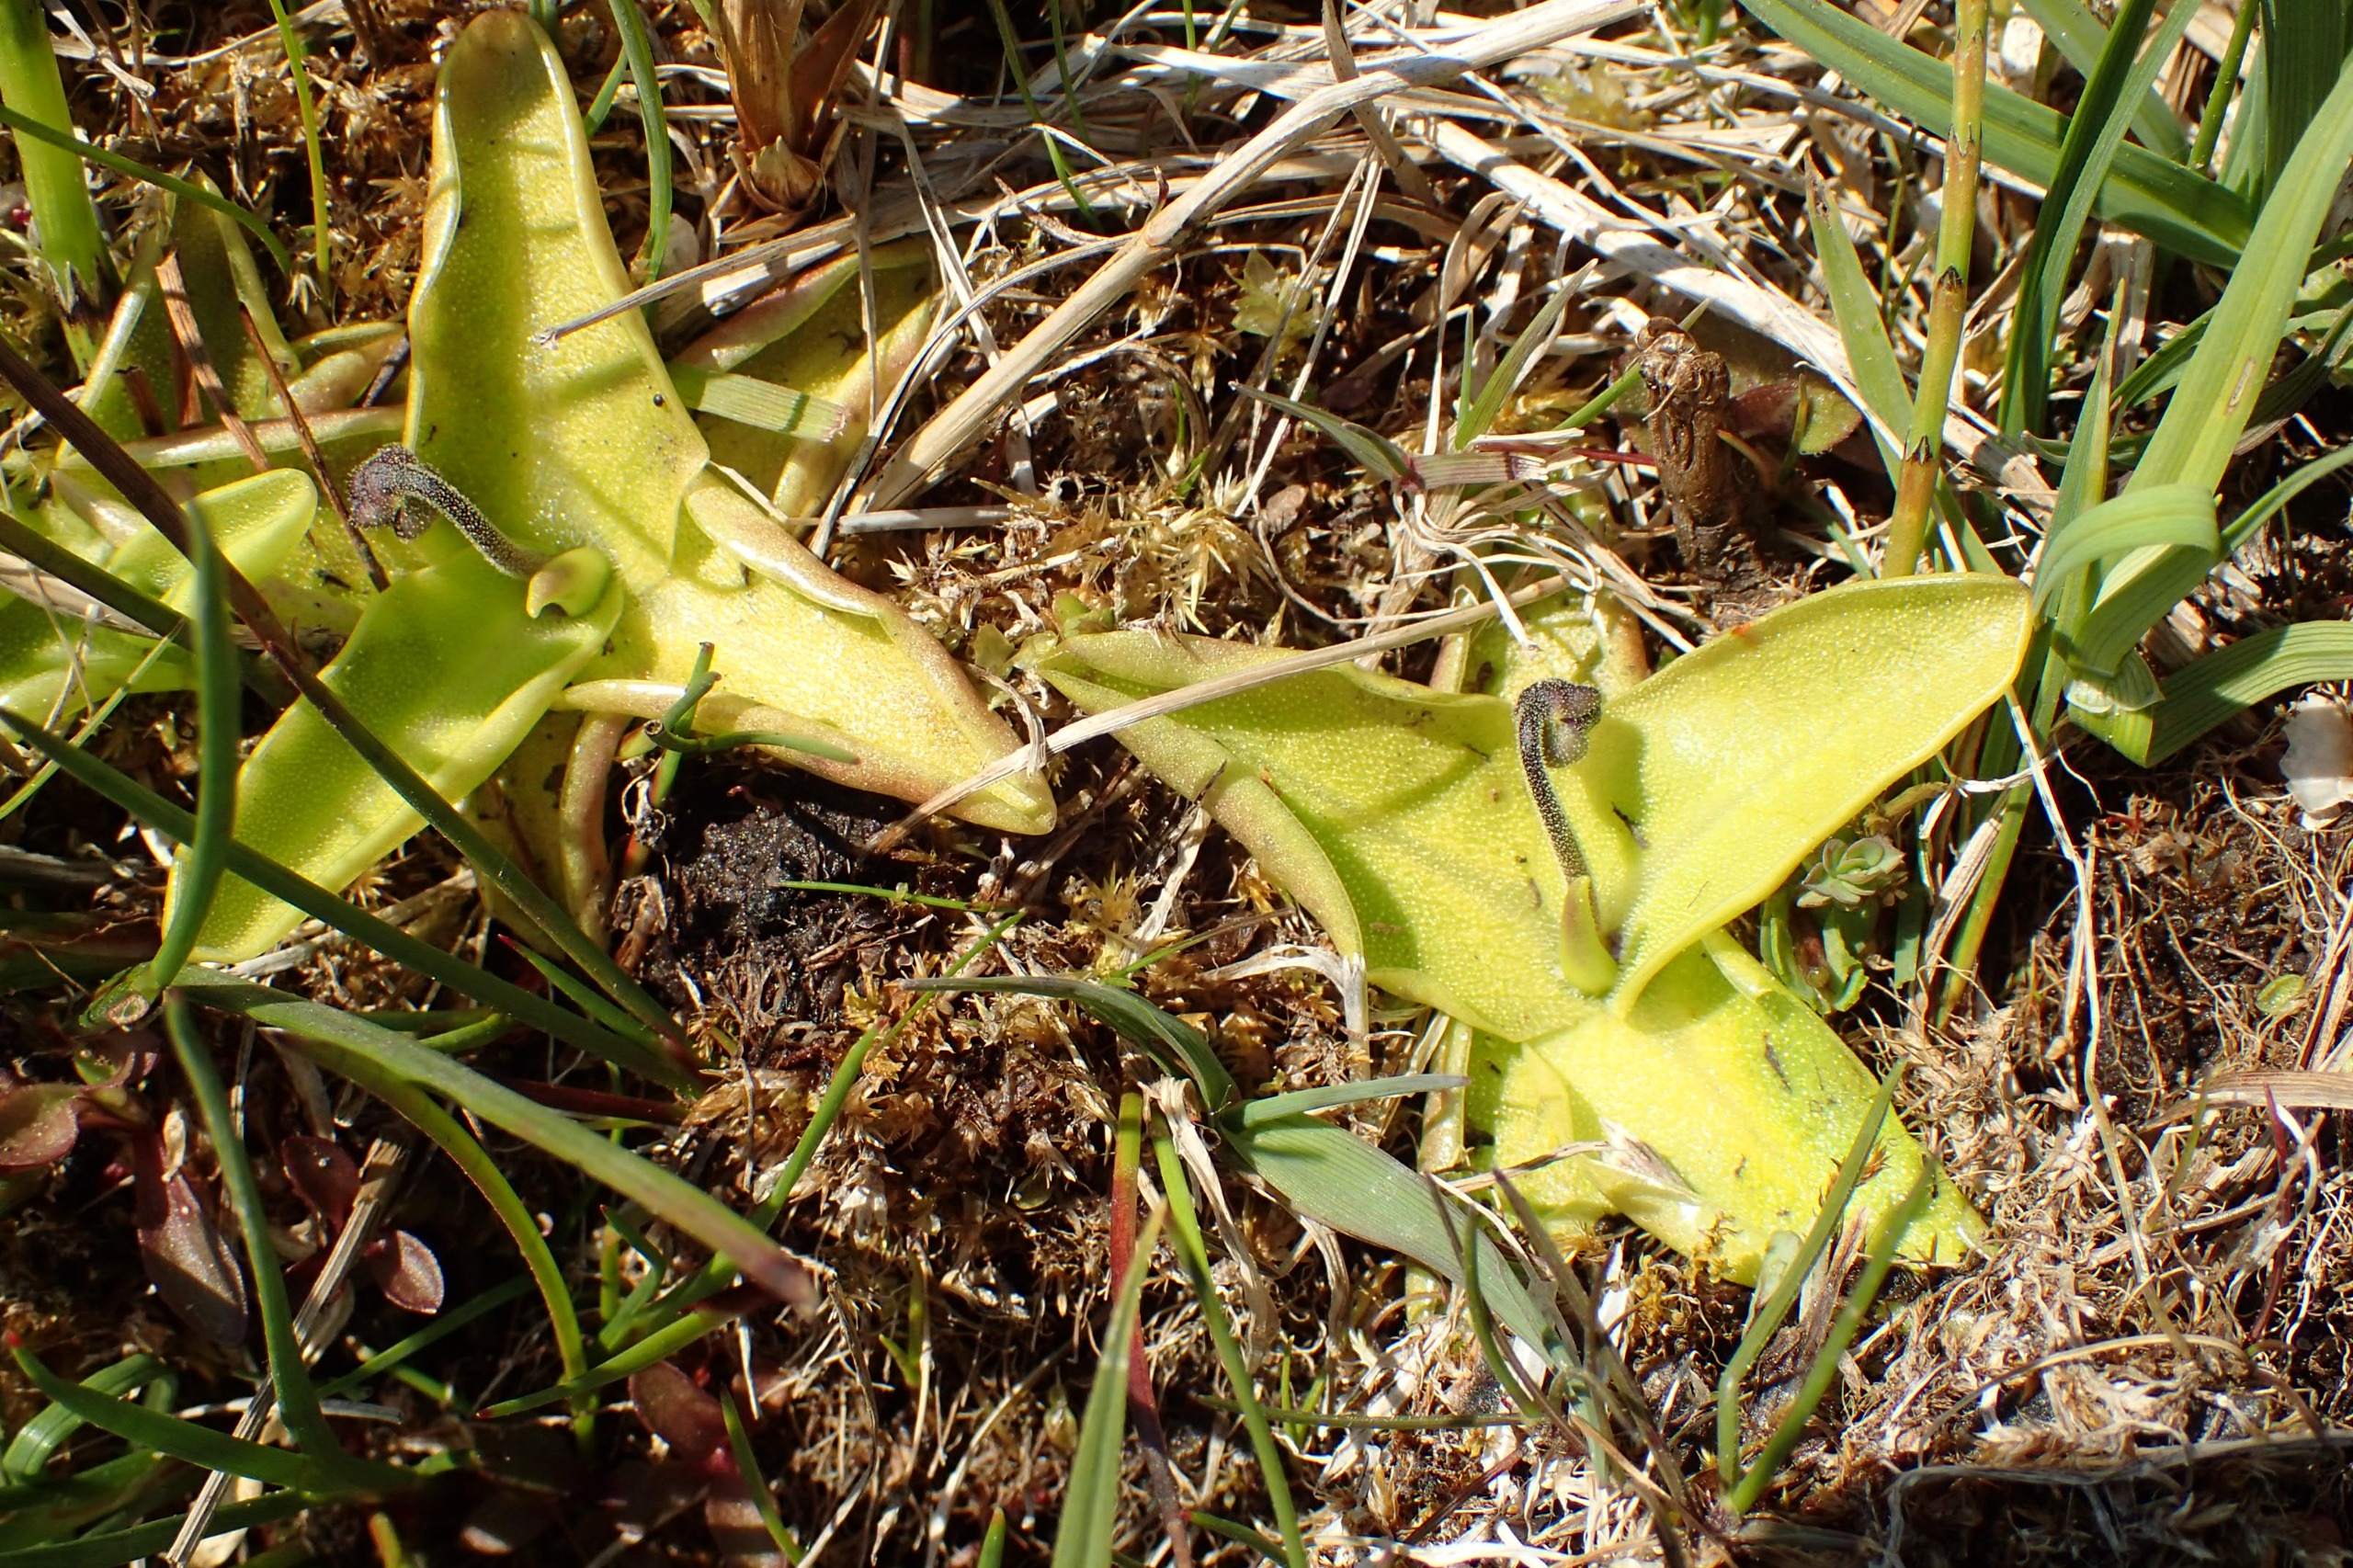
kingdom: Plantae
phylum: Tracheophyta
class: Magnoliopsida
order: Lamiales
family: Lentibulariaceae
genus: Pinguicula
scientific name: Pinguicula vulgaris
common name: Vibefedt
